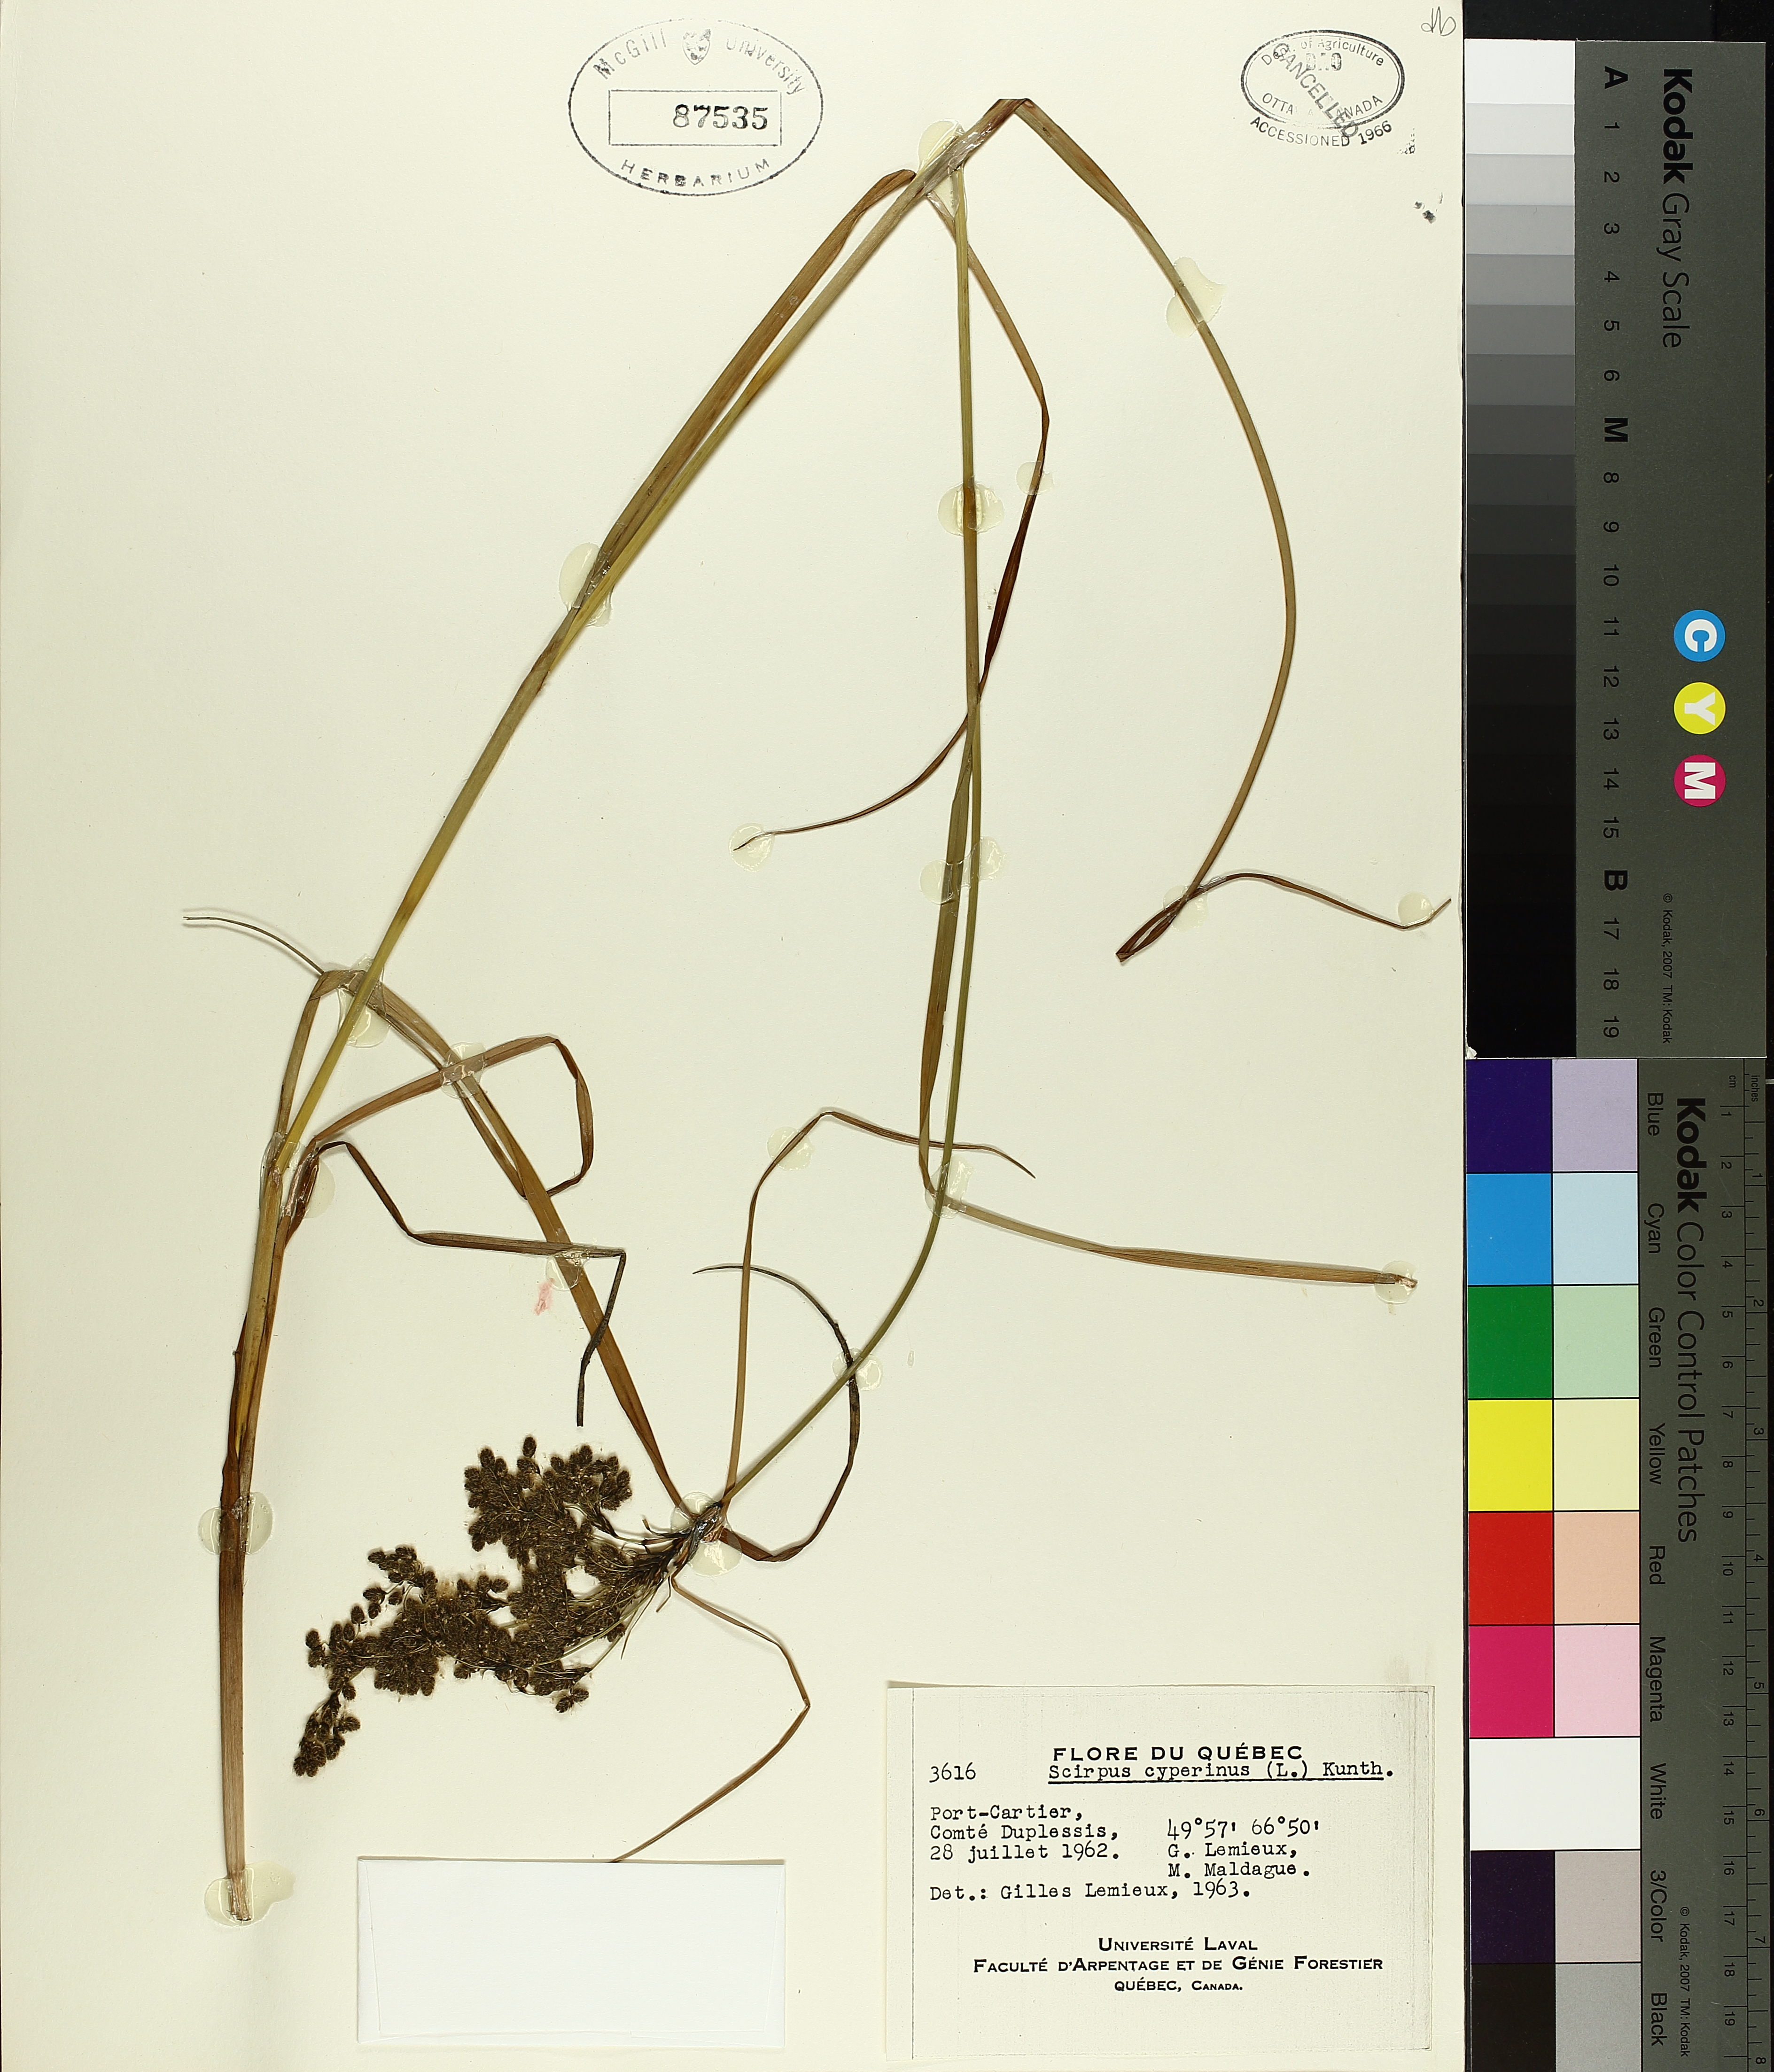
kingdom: Plantae
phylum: Tracheophyta
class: Liliopsida
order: Poales
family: Cyperaceae
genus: Scirpus
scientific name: Scirpus cyperinus
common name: Black-sheathed bulrush
